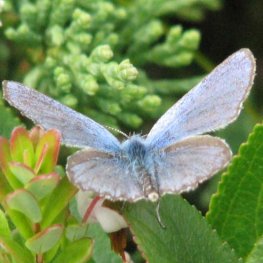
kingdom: Animalia
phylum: Arthropoda
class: Insecta
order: Lepidoptera
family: Lycaenidae
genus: Lycaeides
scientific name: Lycaeides idas
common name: Northern Blue
